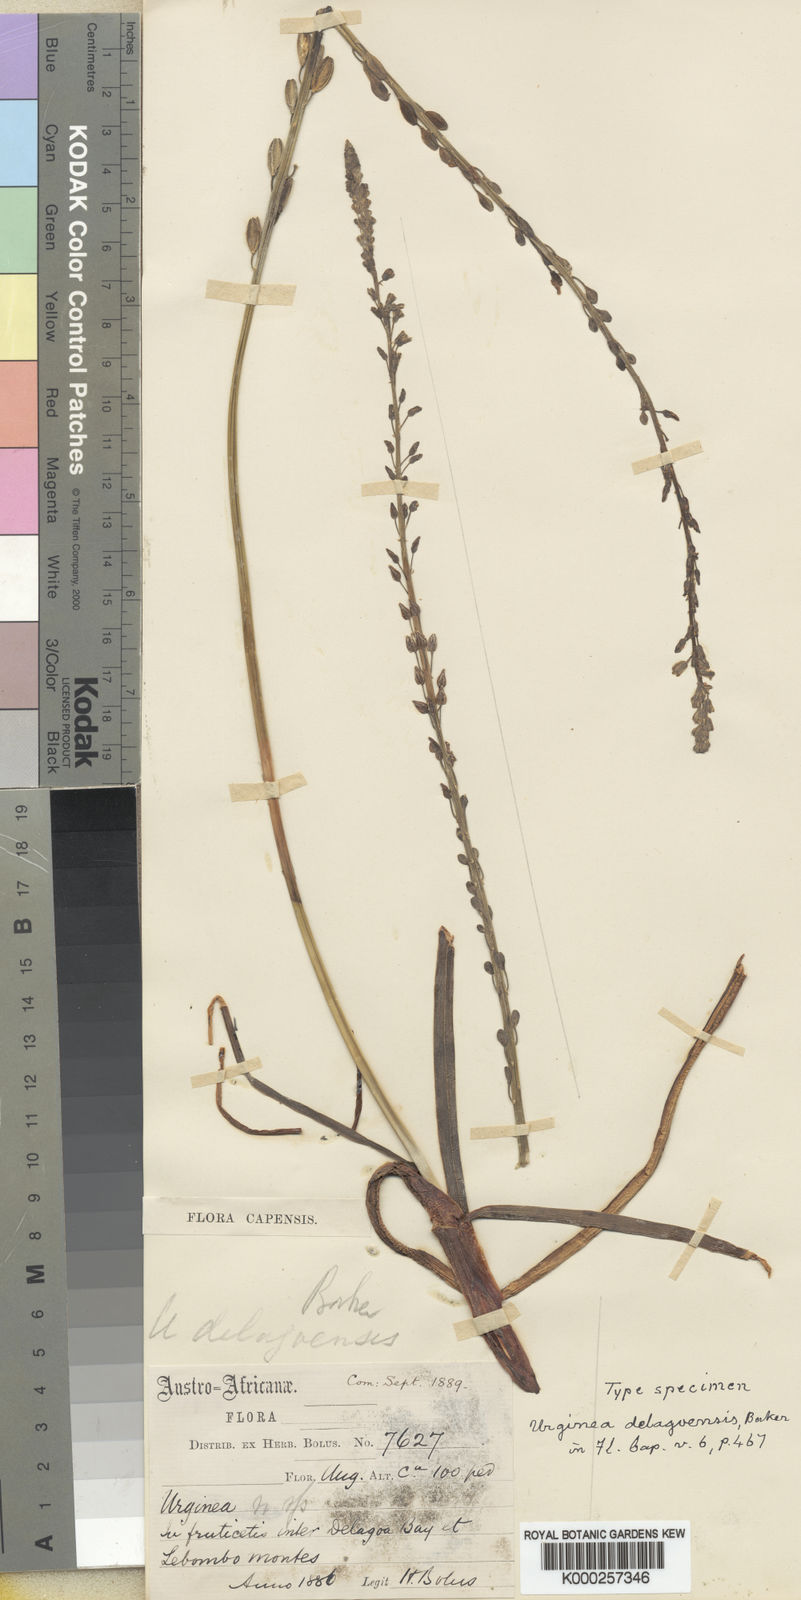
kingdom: Plantae
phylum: Tracheophyta
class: Liliopsida
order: Asparagales
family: Asparagaceae
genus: Drimia
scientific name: Drimia delagoensis
